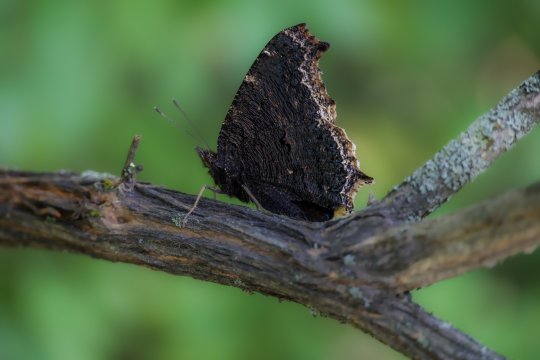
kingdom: Animalia
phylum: Arthropoda
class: Insecta
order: Lepidoptera
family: Nymphalidae
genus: Nymphalis
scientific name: Nymphalis antiopa
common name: Mourning Cloak
